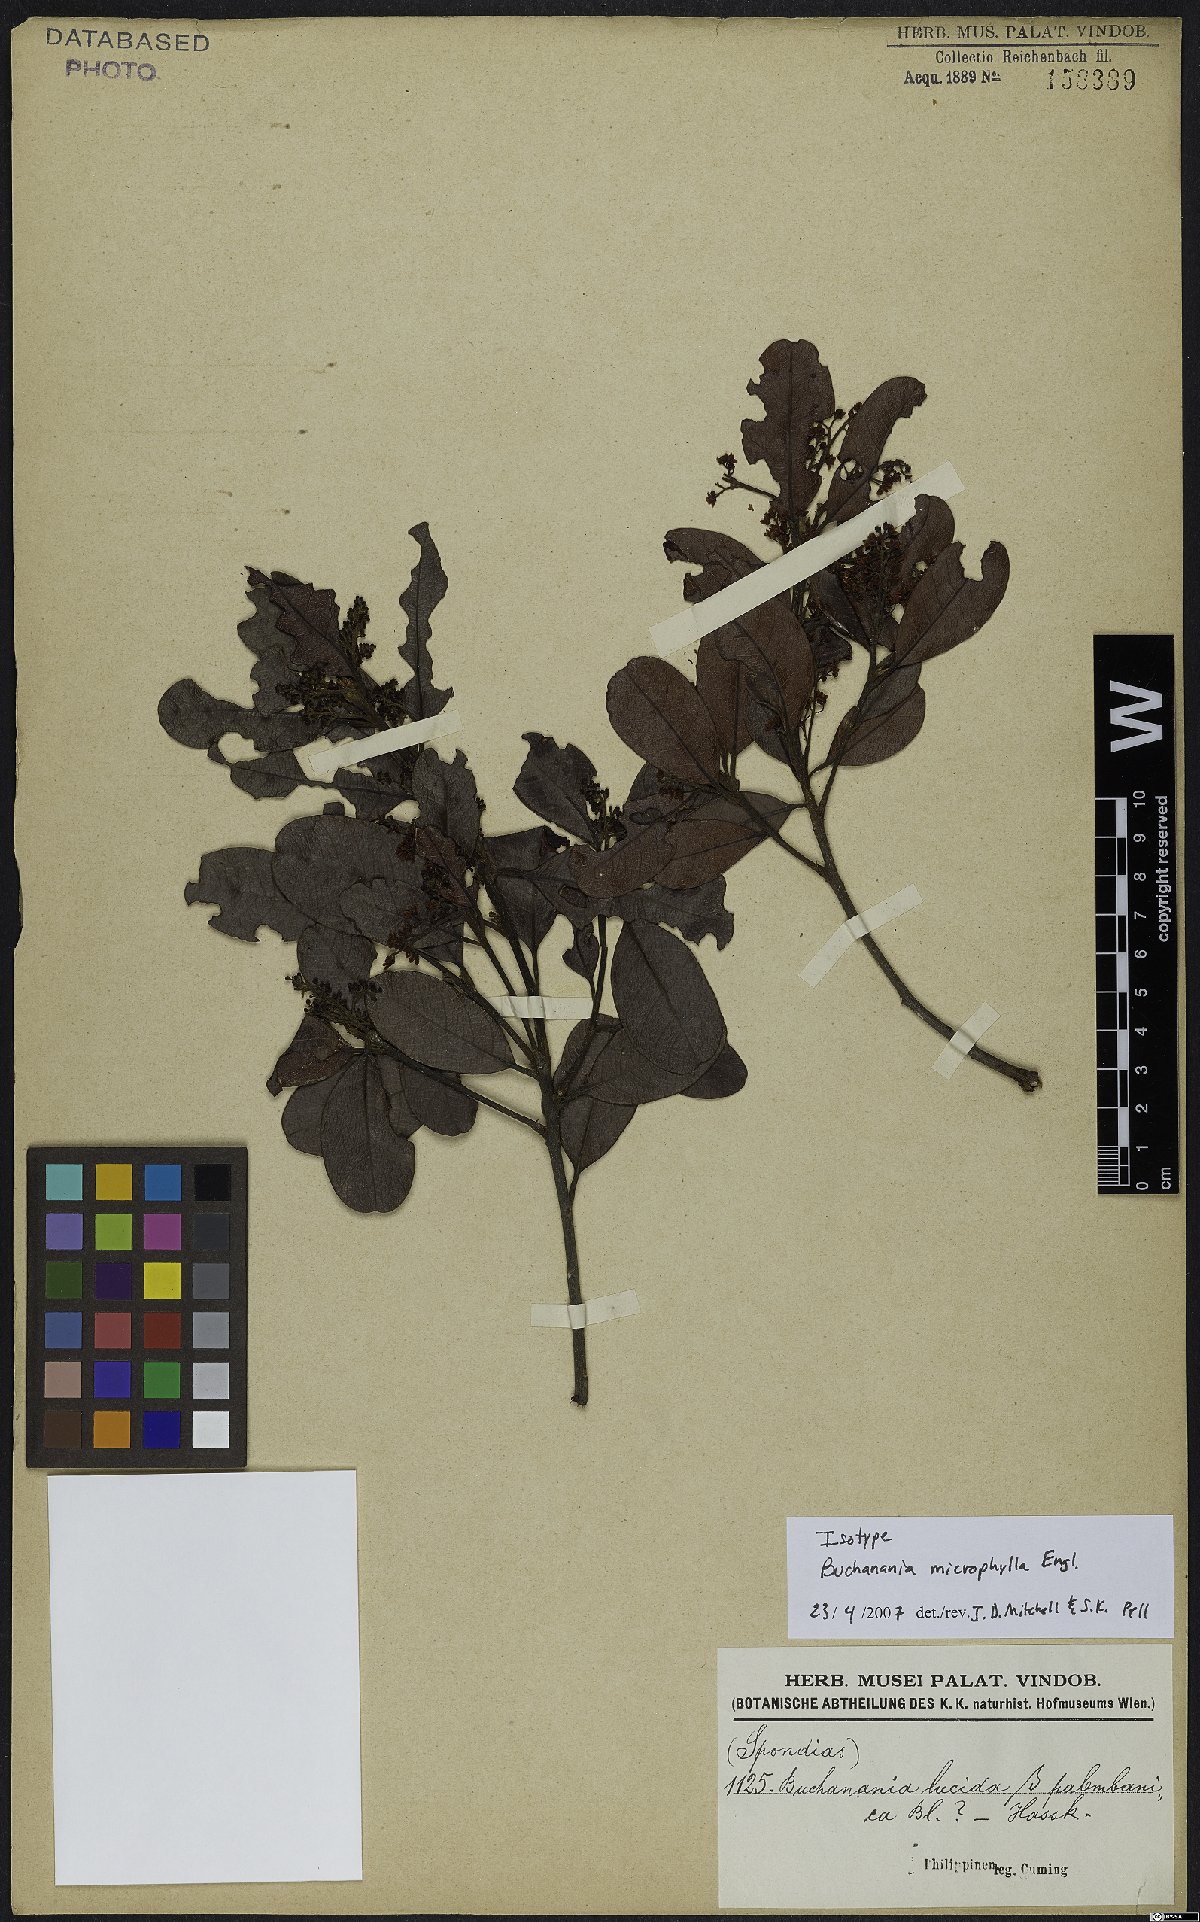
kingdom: Plantae
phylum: Tracheophyta
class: Magnoliopsida
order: Sapindales
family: Anacardiaceae
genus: Buchanania
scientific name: Buchanania microphylla
